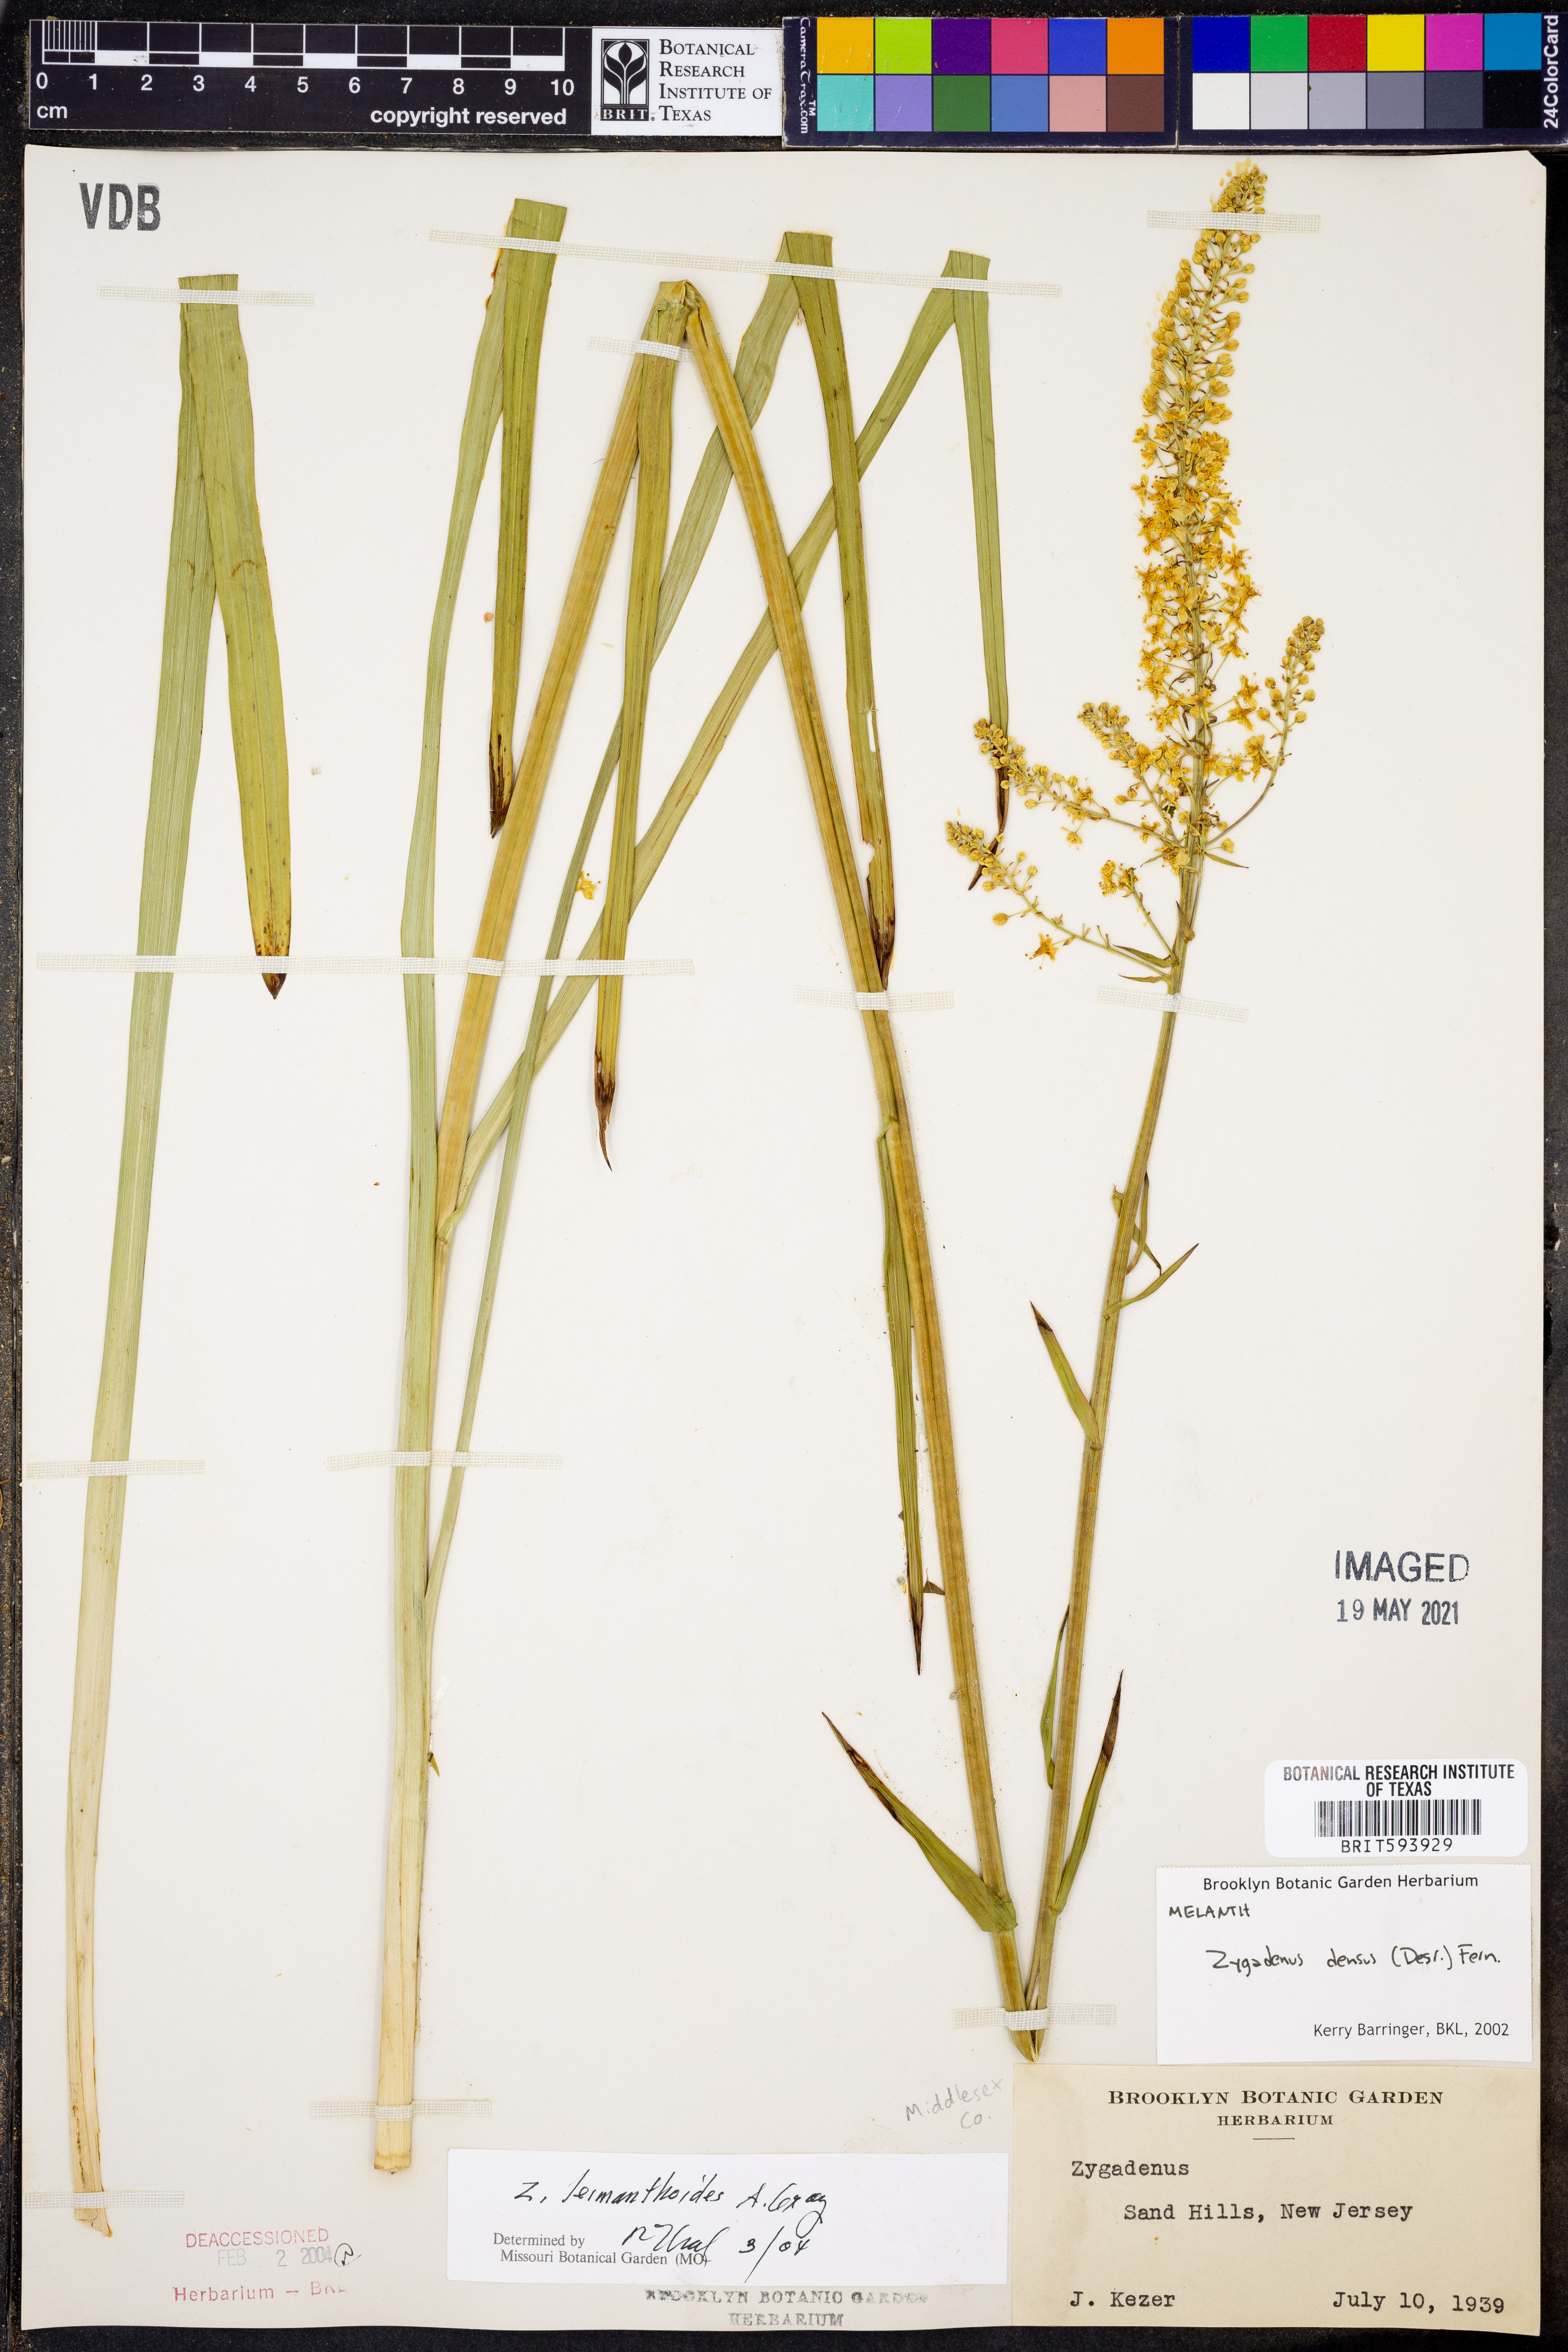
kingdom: Plantae
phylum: Tracheophyta
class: Liliopsida
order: Liliales
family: Melanthiaceae
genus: Stenanthium
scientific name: Stenanthium densum
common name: Crow-poison
